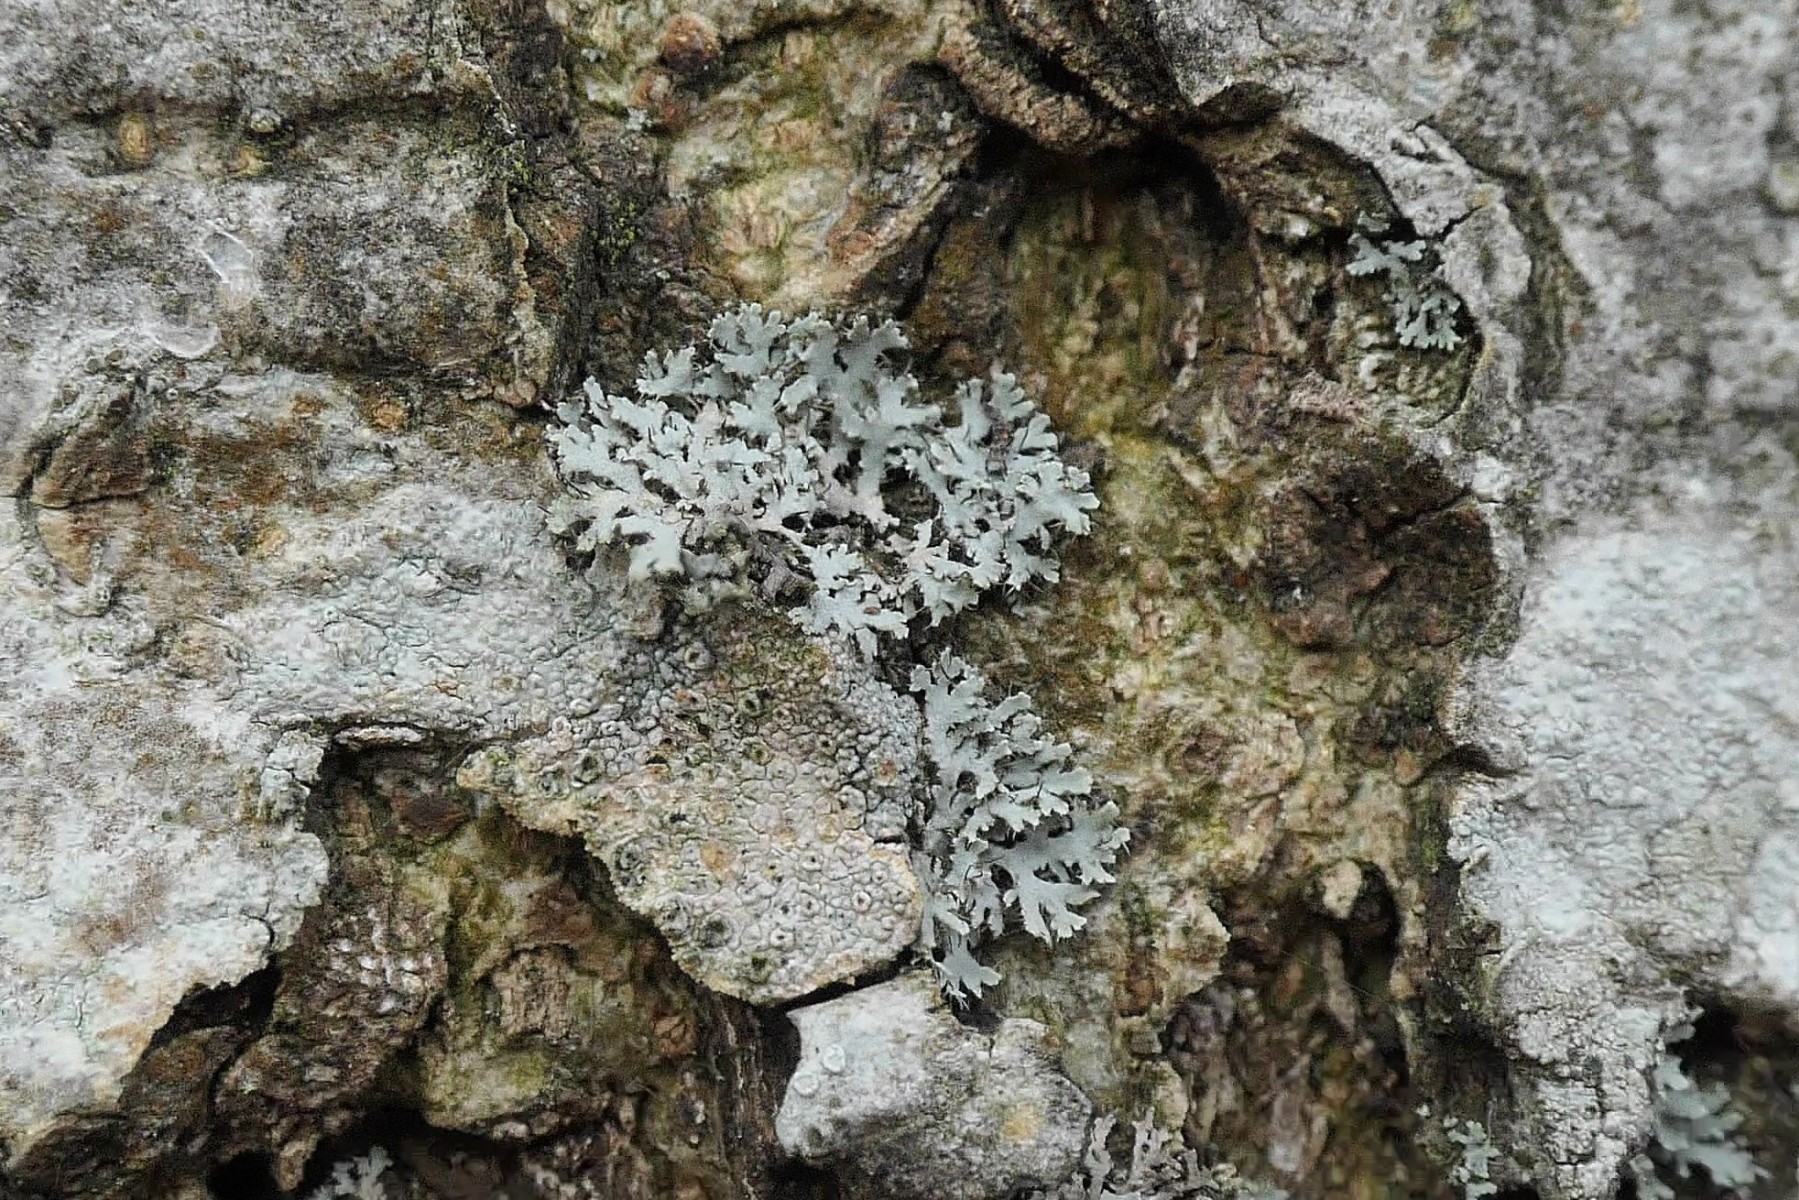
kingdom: Fungi
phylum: Ascomycota
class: Lecanoromycetes
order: Caliciales
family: Physciaceae
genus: Physcia
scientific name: Physcia tenella
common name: spæd rosetlav
